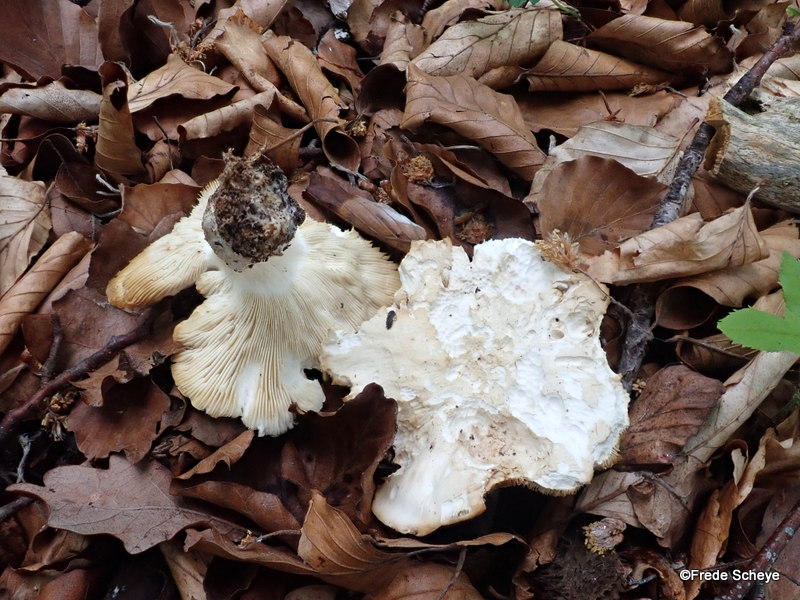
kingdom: Fungi
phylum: Basidiomycota
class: Agaricomycetes
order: Agaricales
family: Lyophyllaceae
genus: Calocybe
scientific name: Calocybe gambosa
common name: vårmusseron
